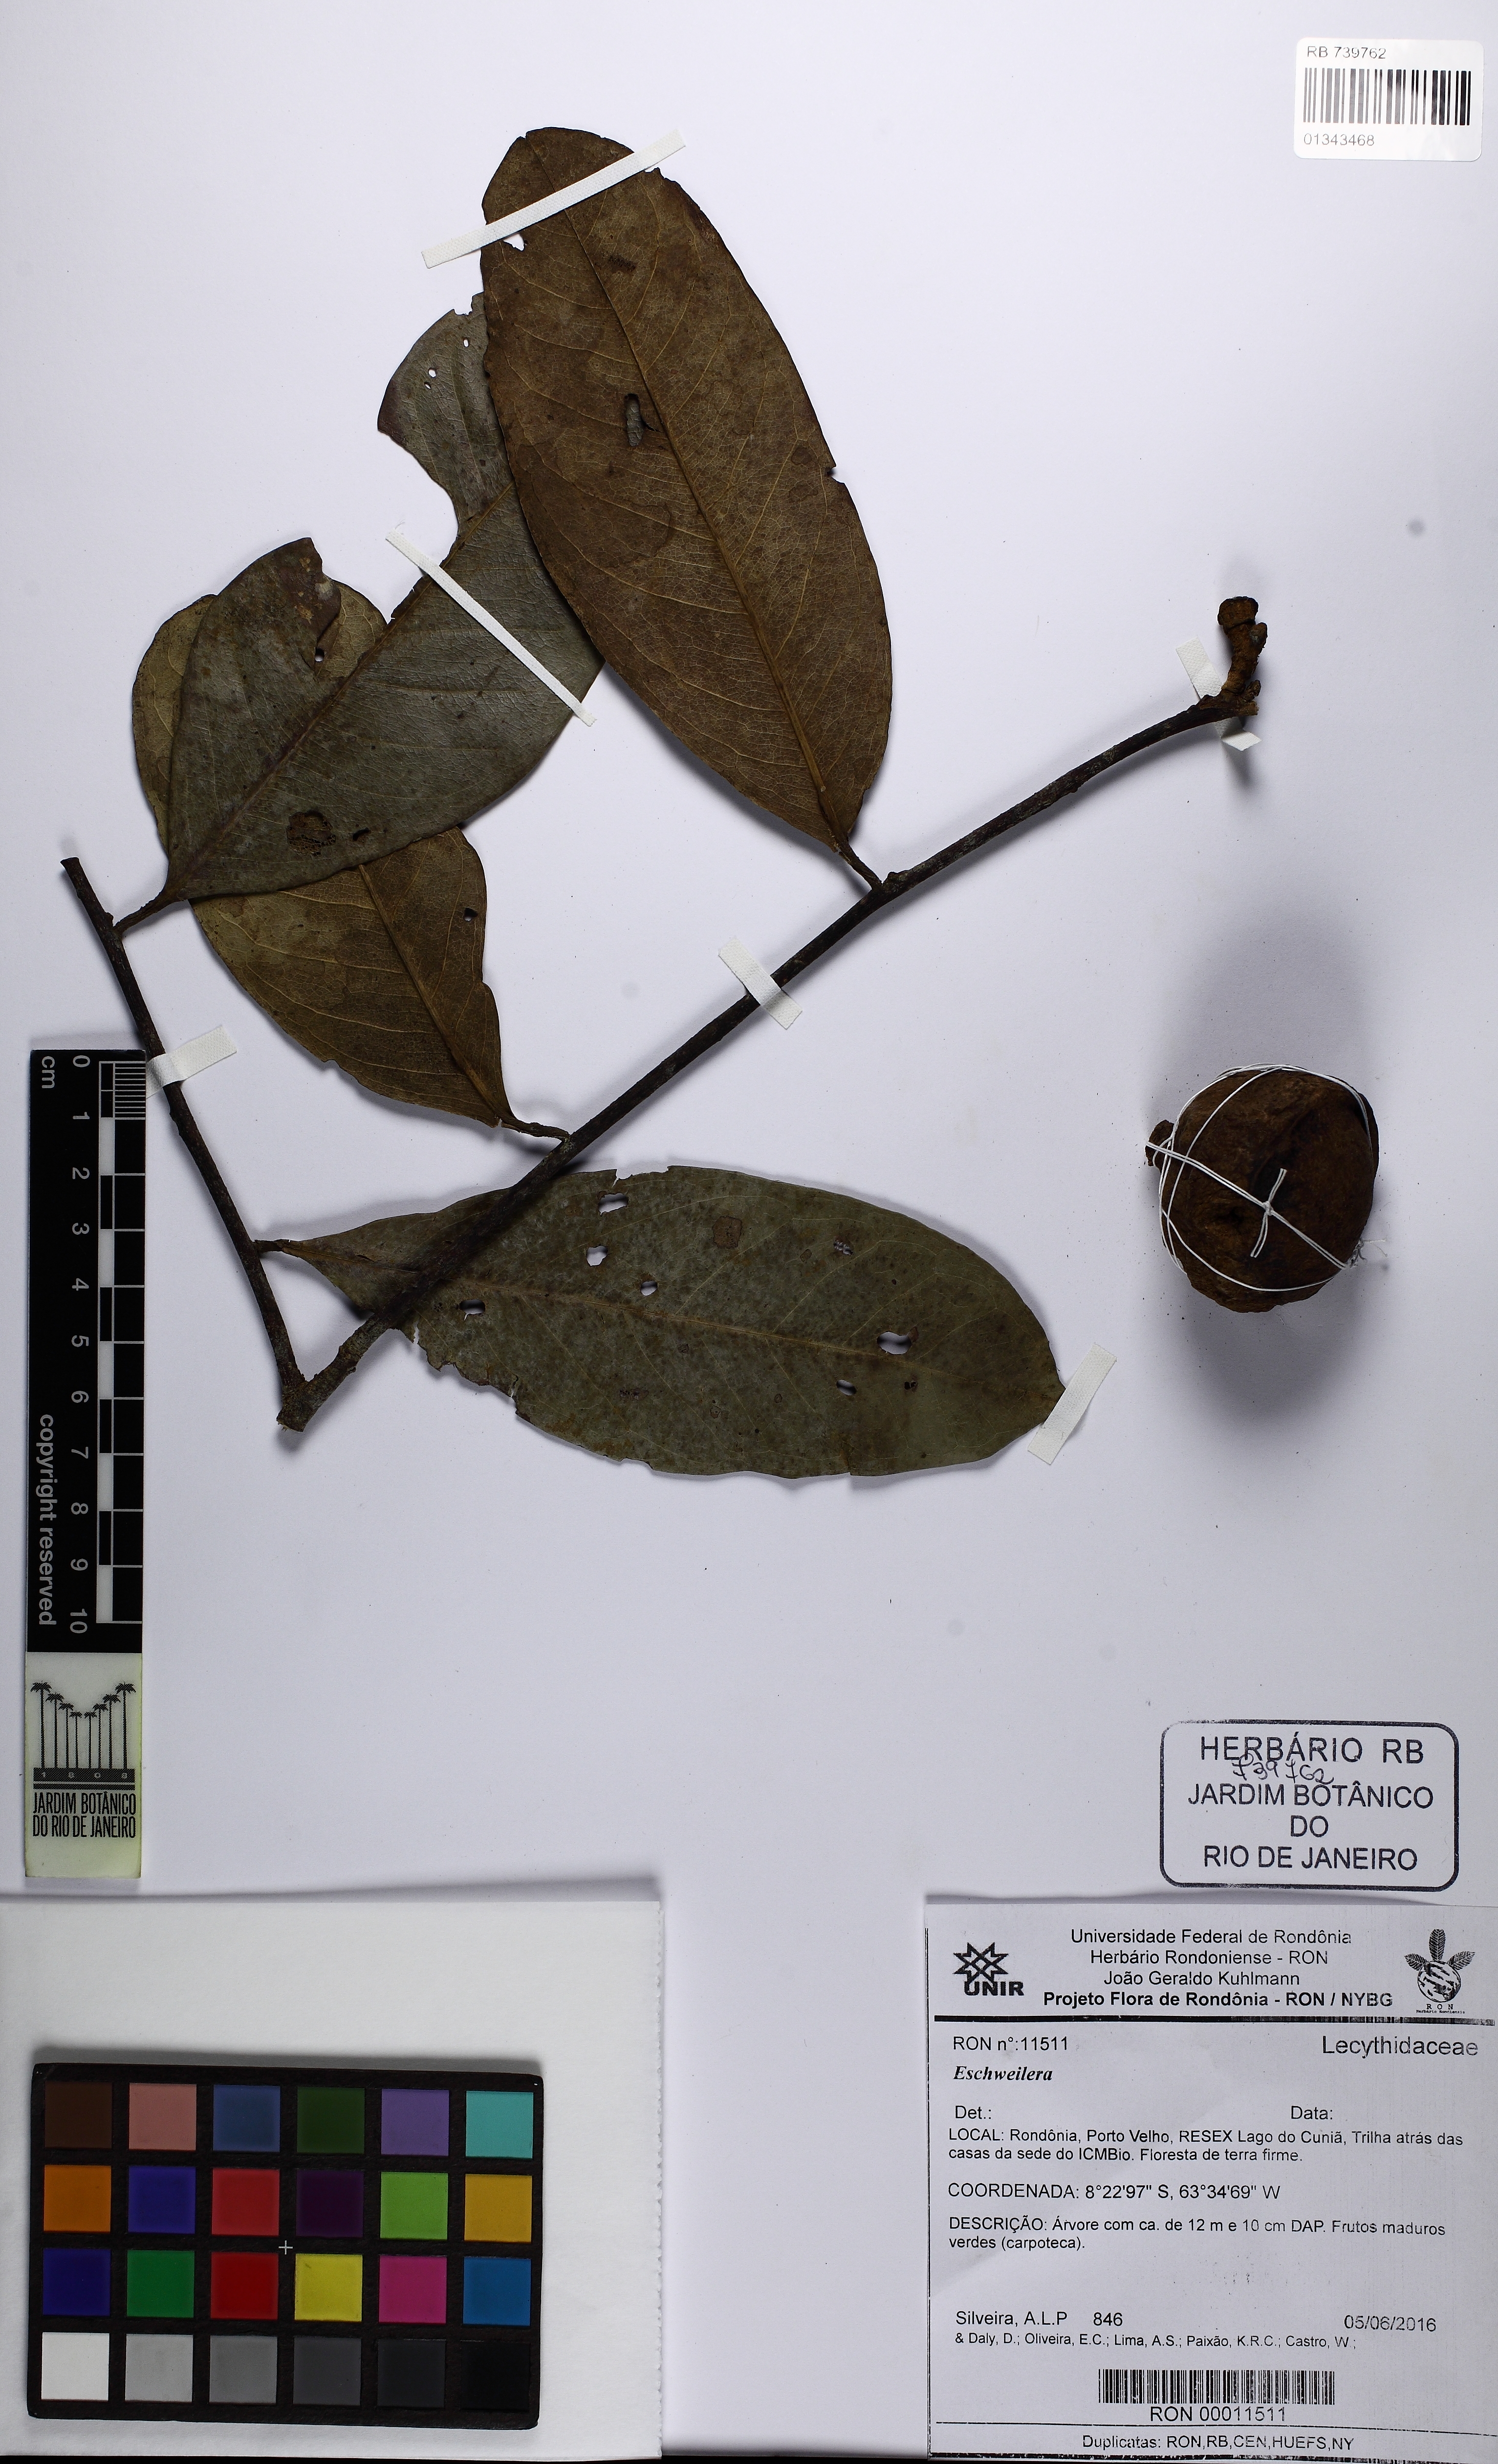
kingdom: Plantae
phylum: Tracheophyta
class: Magnoliopsida
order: Ericales
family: Lecythidaceae
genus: Eschweilera
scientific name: Eschweilera
